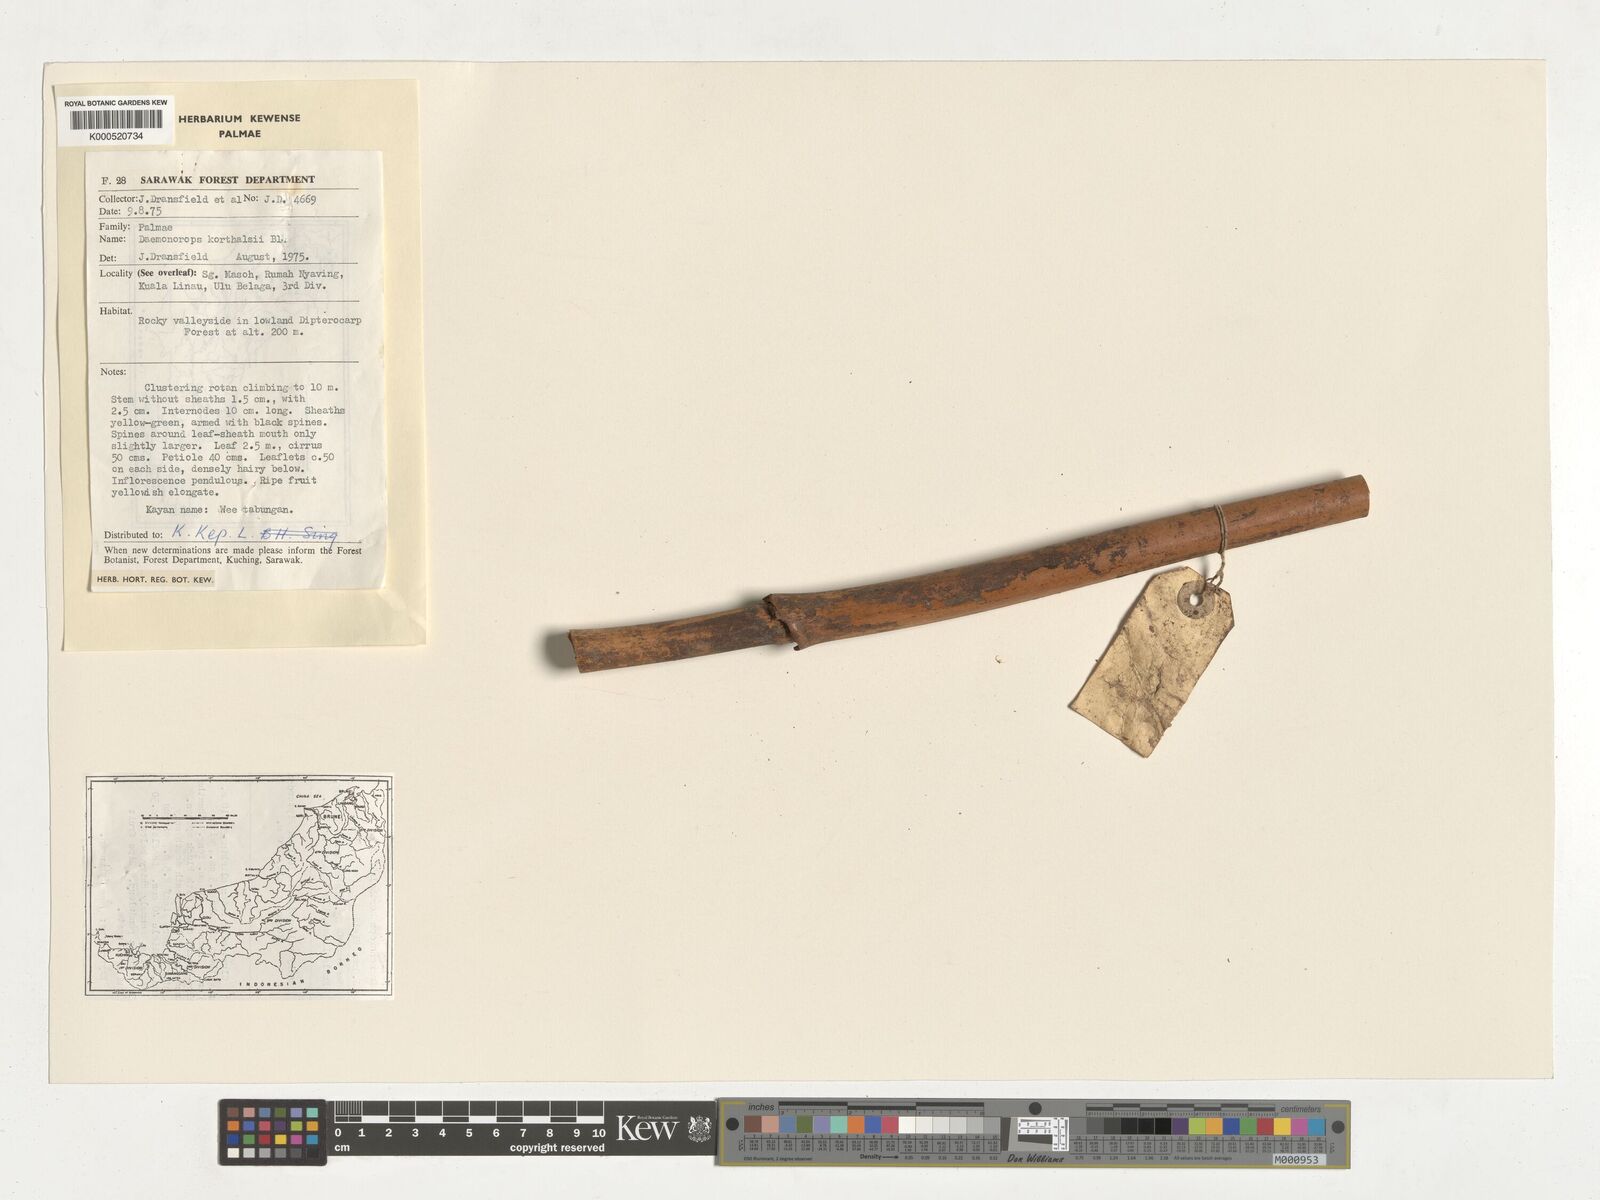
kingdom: Plantae
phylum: Tracheophyta
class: Liliopsida
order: Arecales
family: Arecaceae
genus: Calamus
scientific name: Calamus hirsutus
